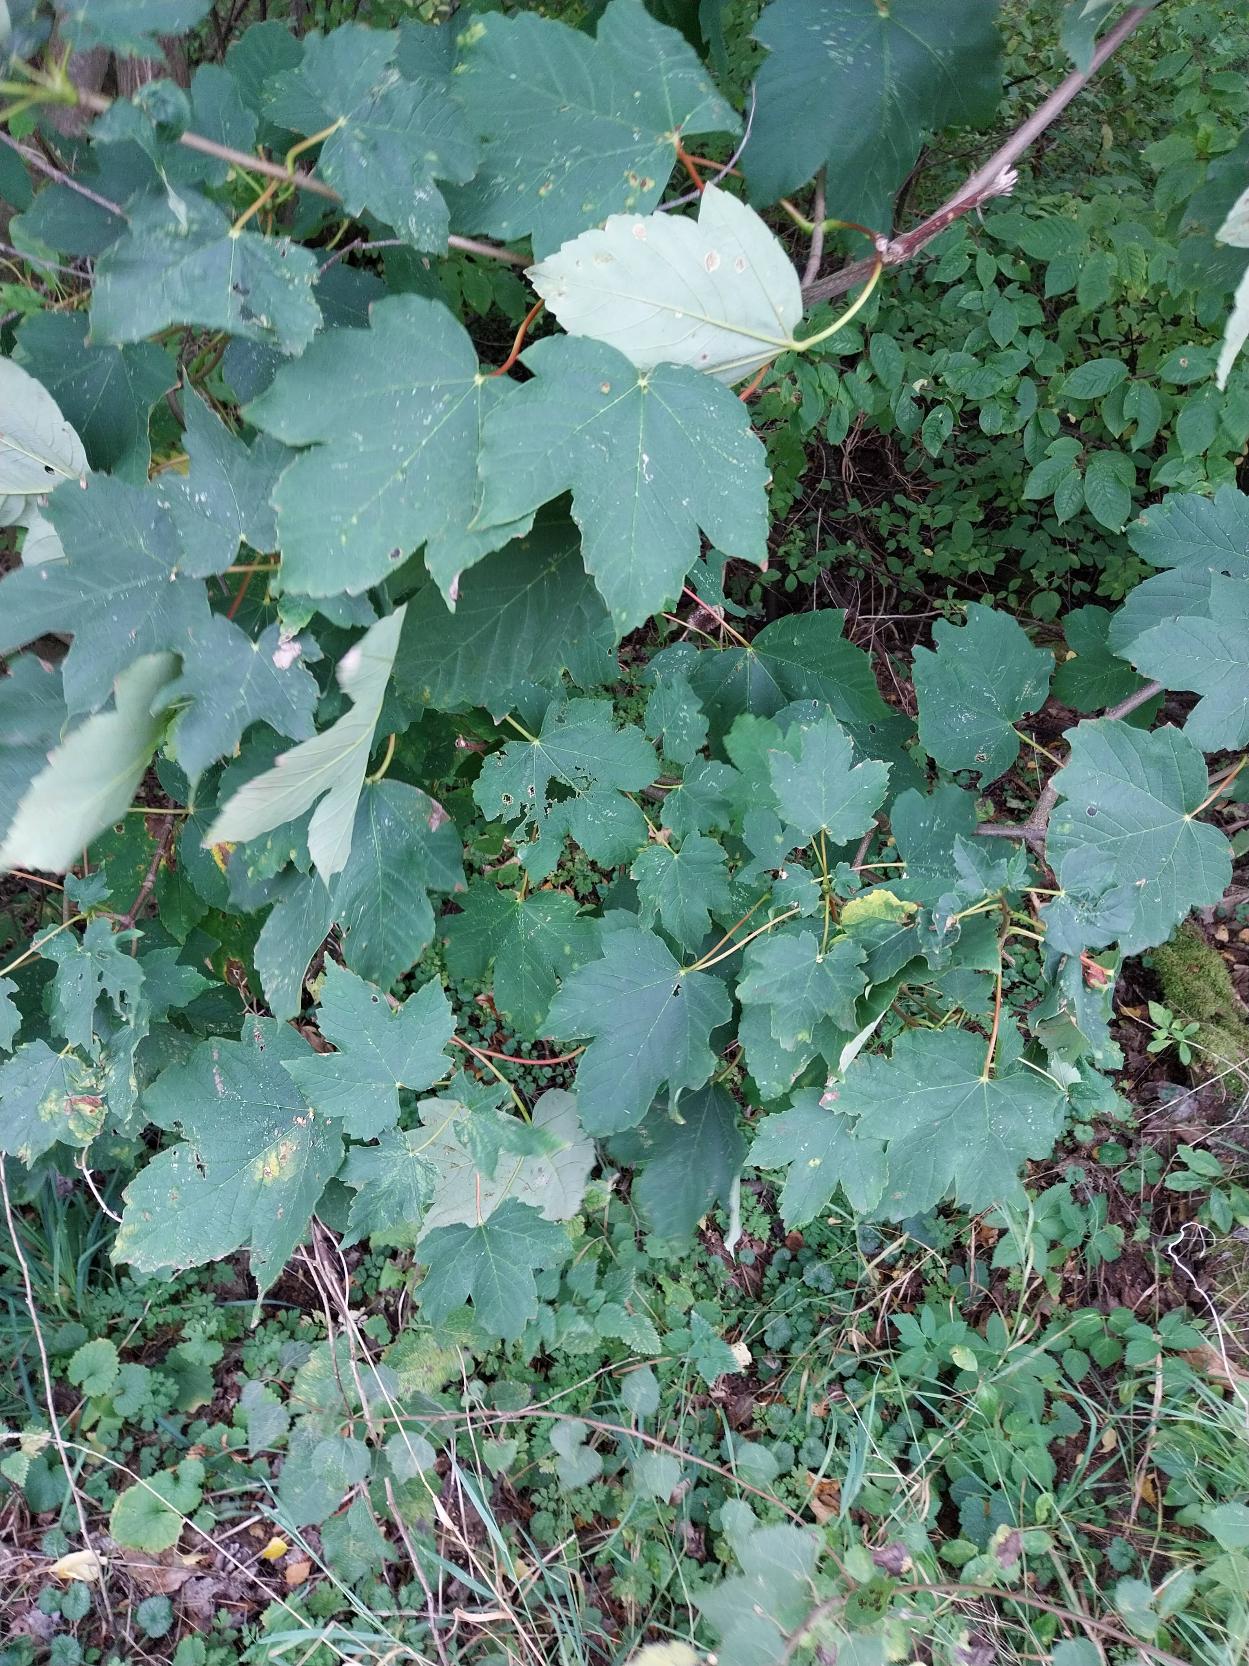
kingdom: Plantae
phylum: Tracheophyta
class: Magnoliopsida
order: Sapindales
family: Sapindaceae
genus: Acer
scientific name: Acer pseudoplatanus
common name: Ahorn
